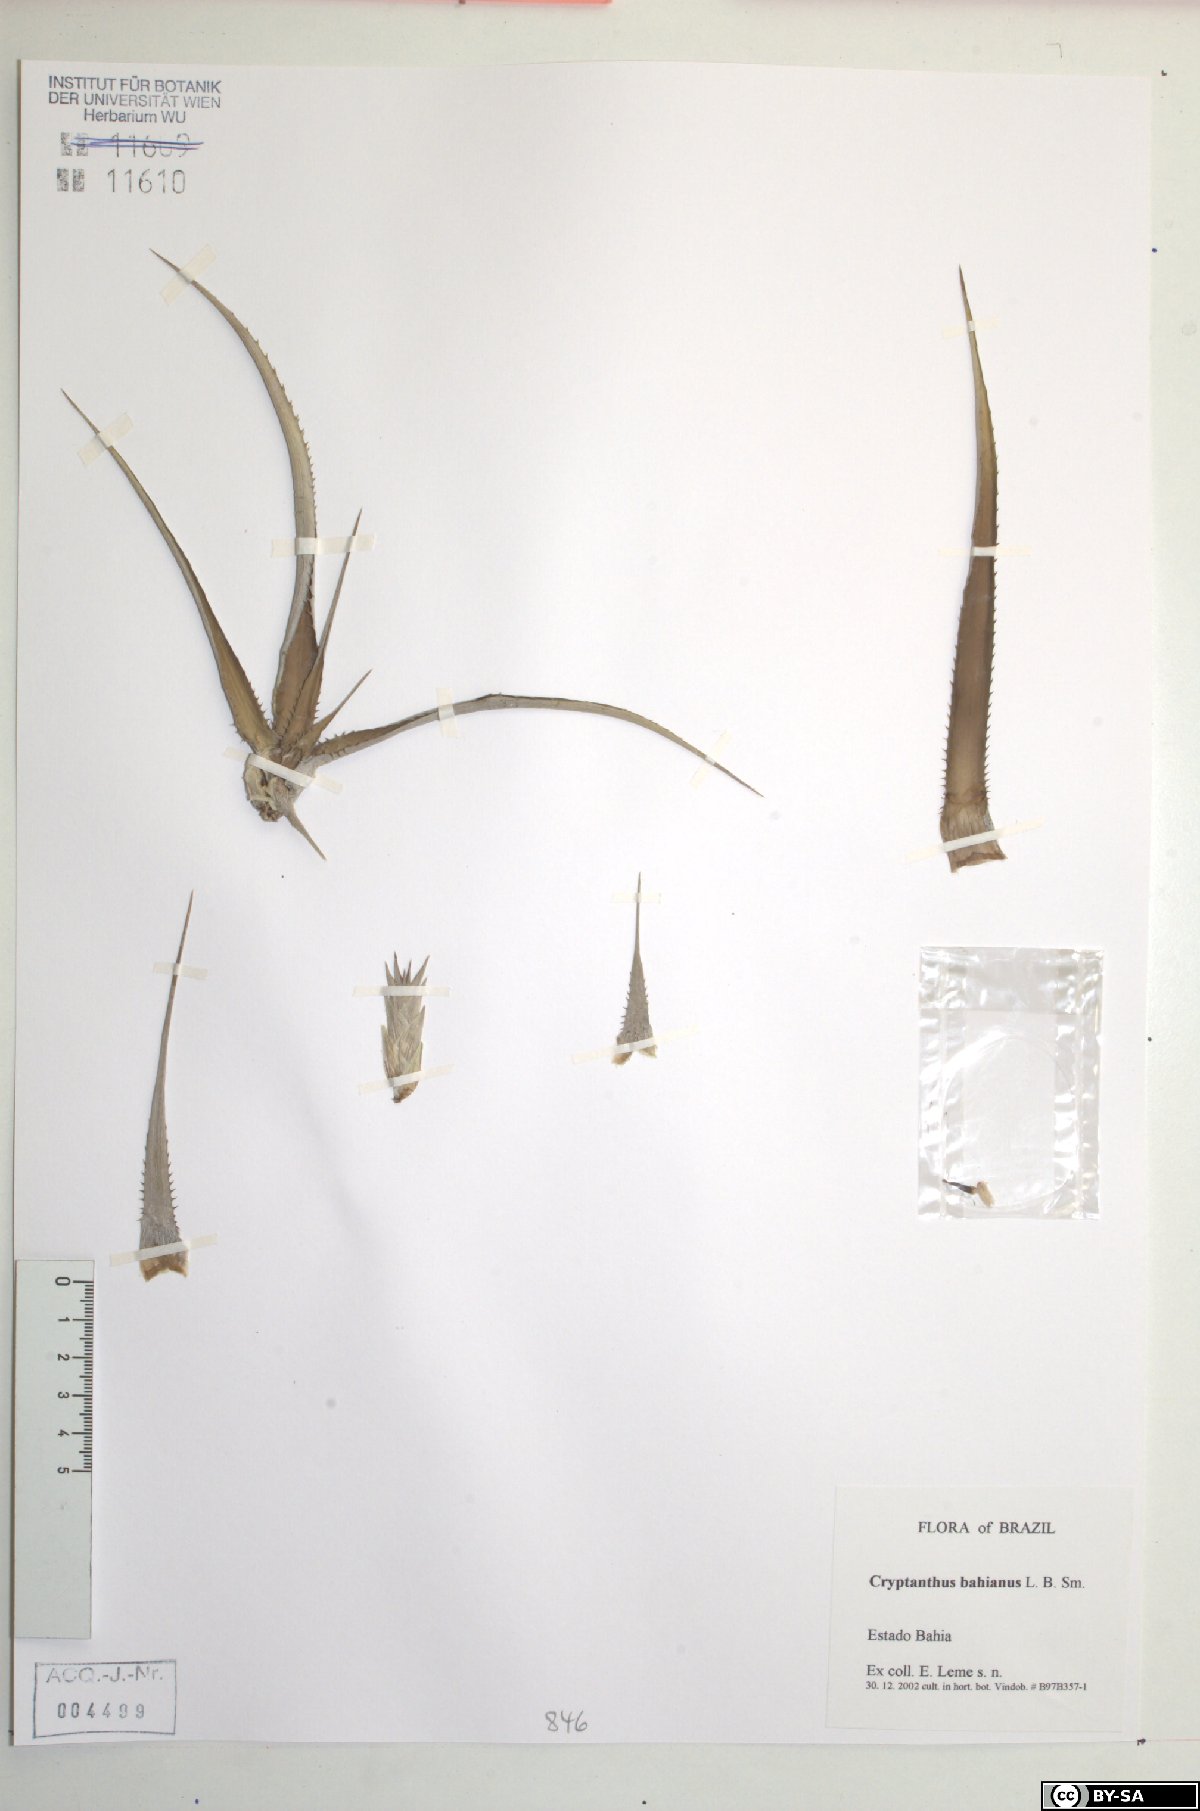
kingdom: Plantae
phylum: Tracheophyta
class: Liliopsida
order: Poales
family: Bromeliaceae
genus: Cryptanthus
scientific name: Cryptanthus bahianus
